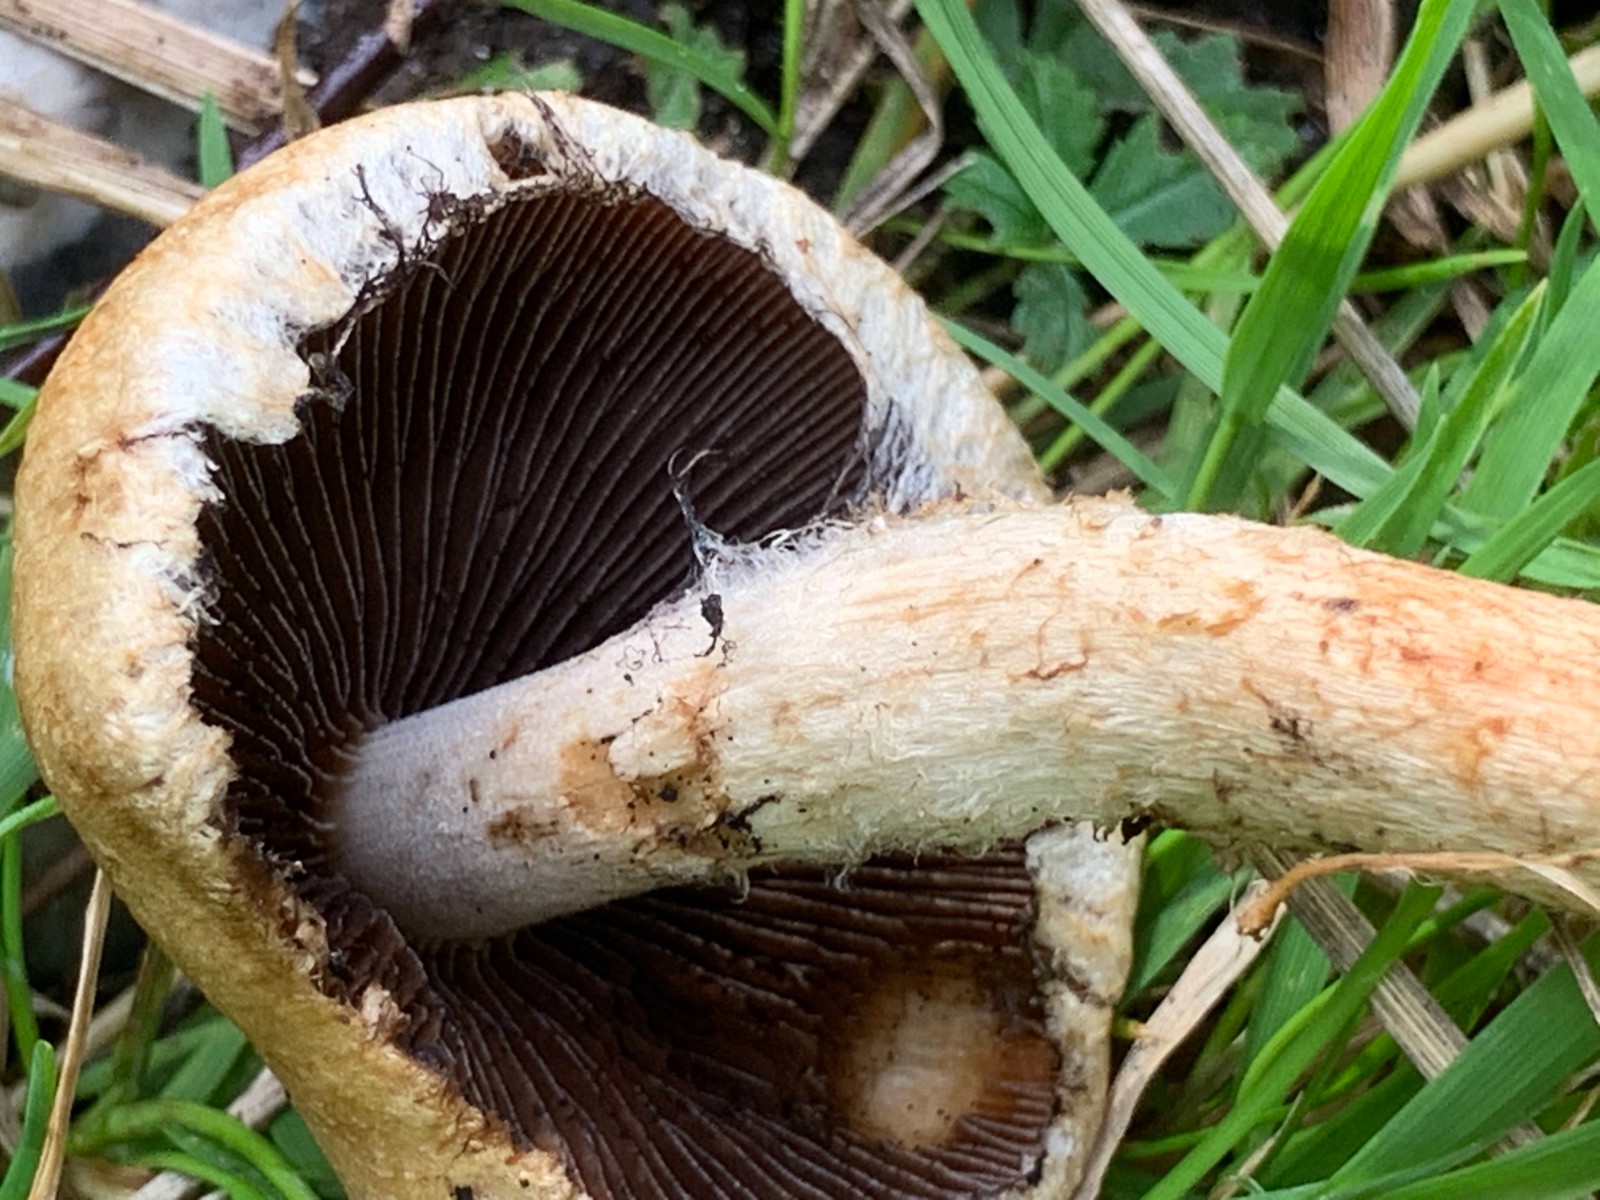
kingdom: Fungi
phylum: Basidiomycota
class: Agaricomycetes
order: Agaricales
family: Psathyrellaceae
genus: Lacrymaria
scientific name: Lacrymaria lacrymabunda
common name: grædende mørkhat
